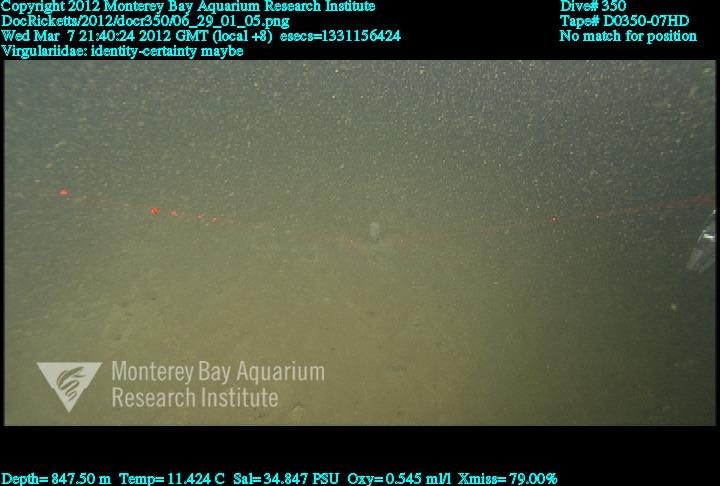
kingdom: Animalia
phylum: Cnidaria
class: Anthozoa
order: Scleralcyonacea
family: Virgulariidae
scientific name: Virgulariidae
